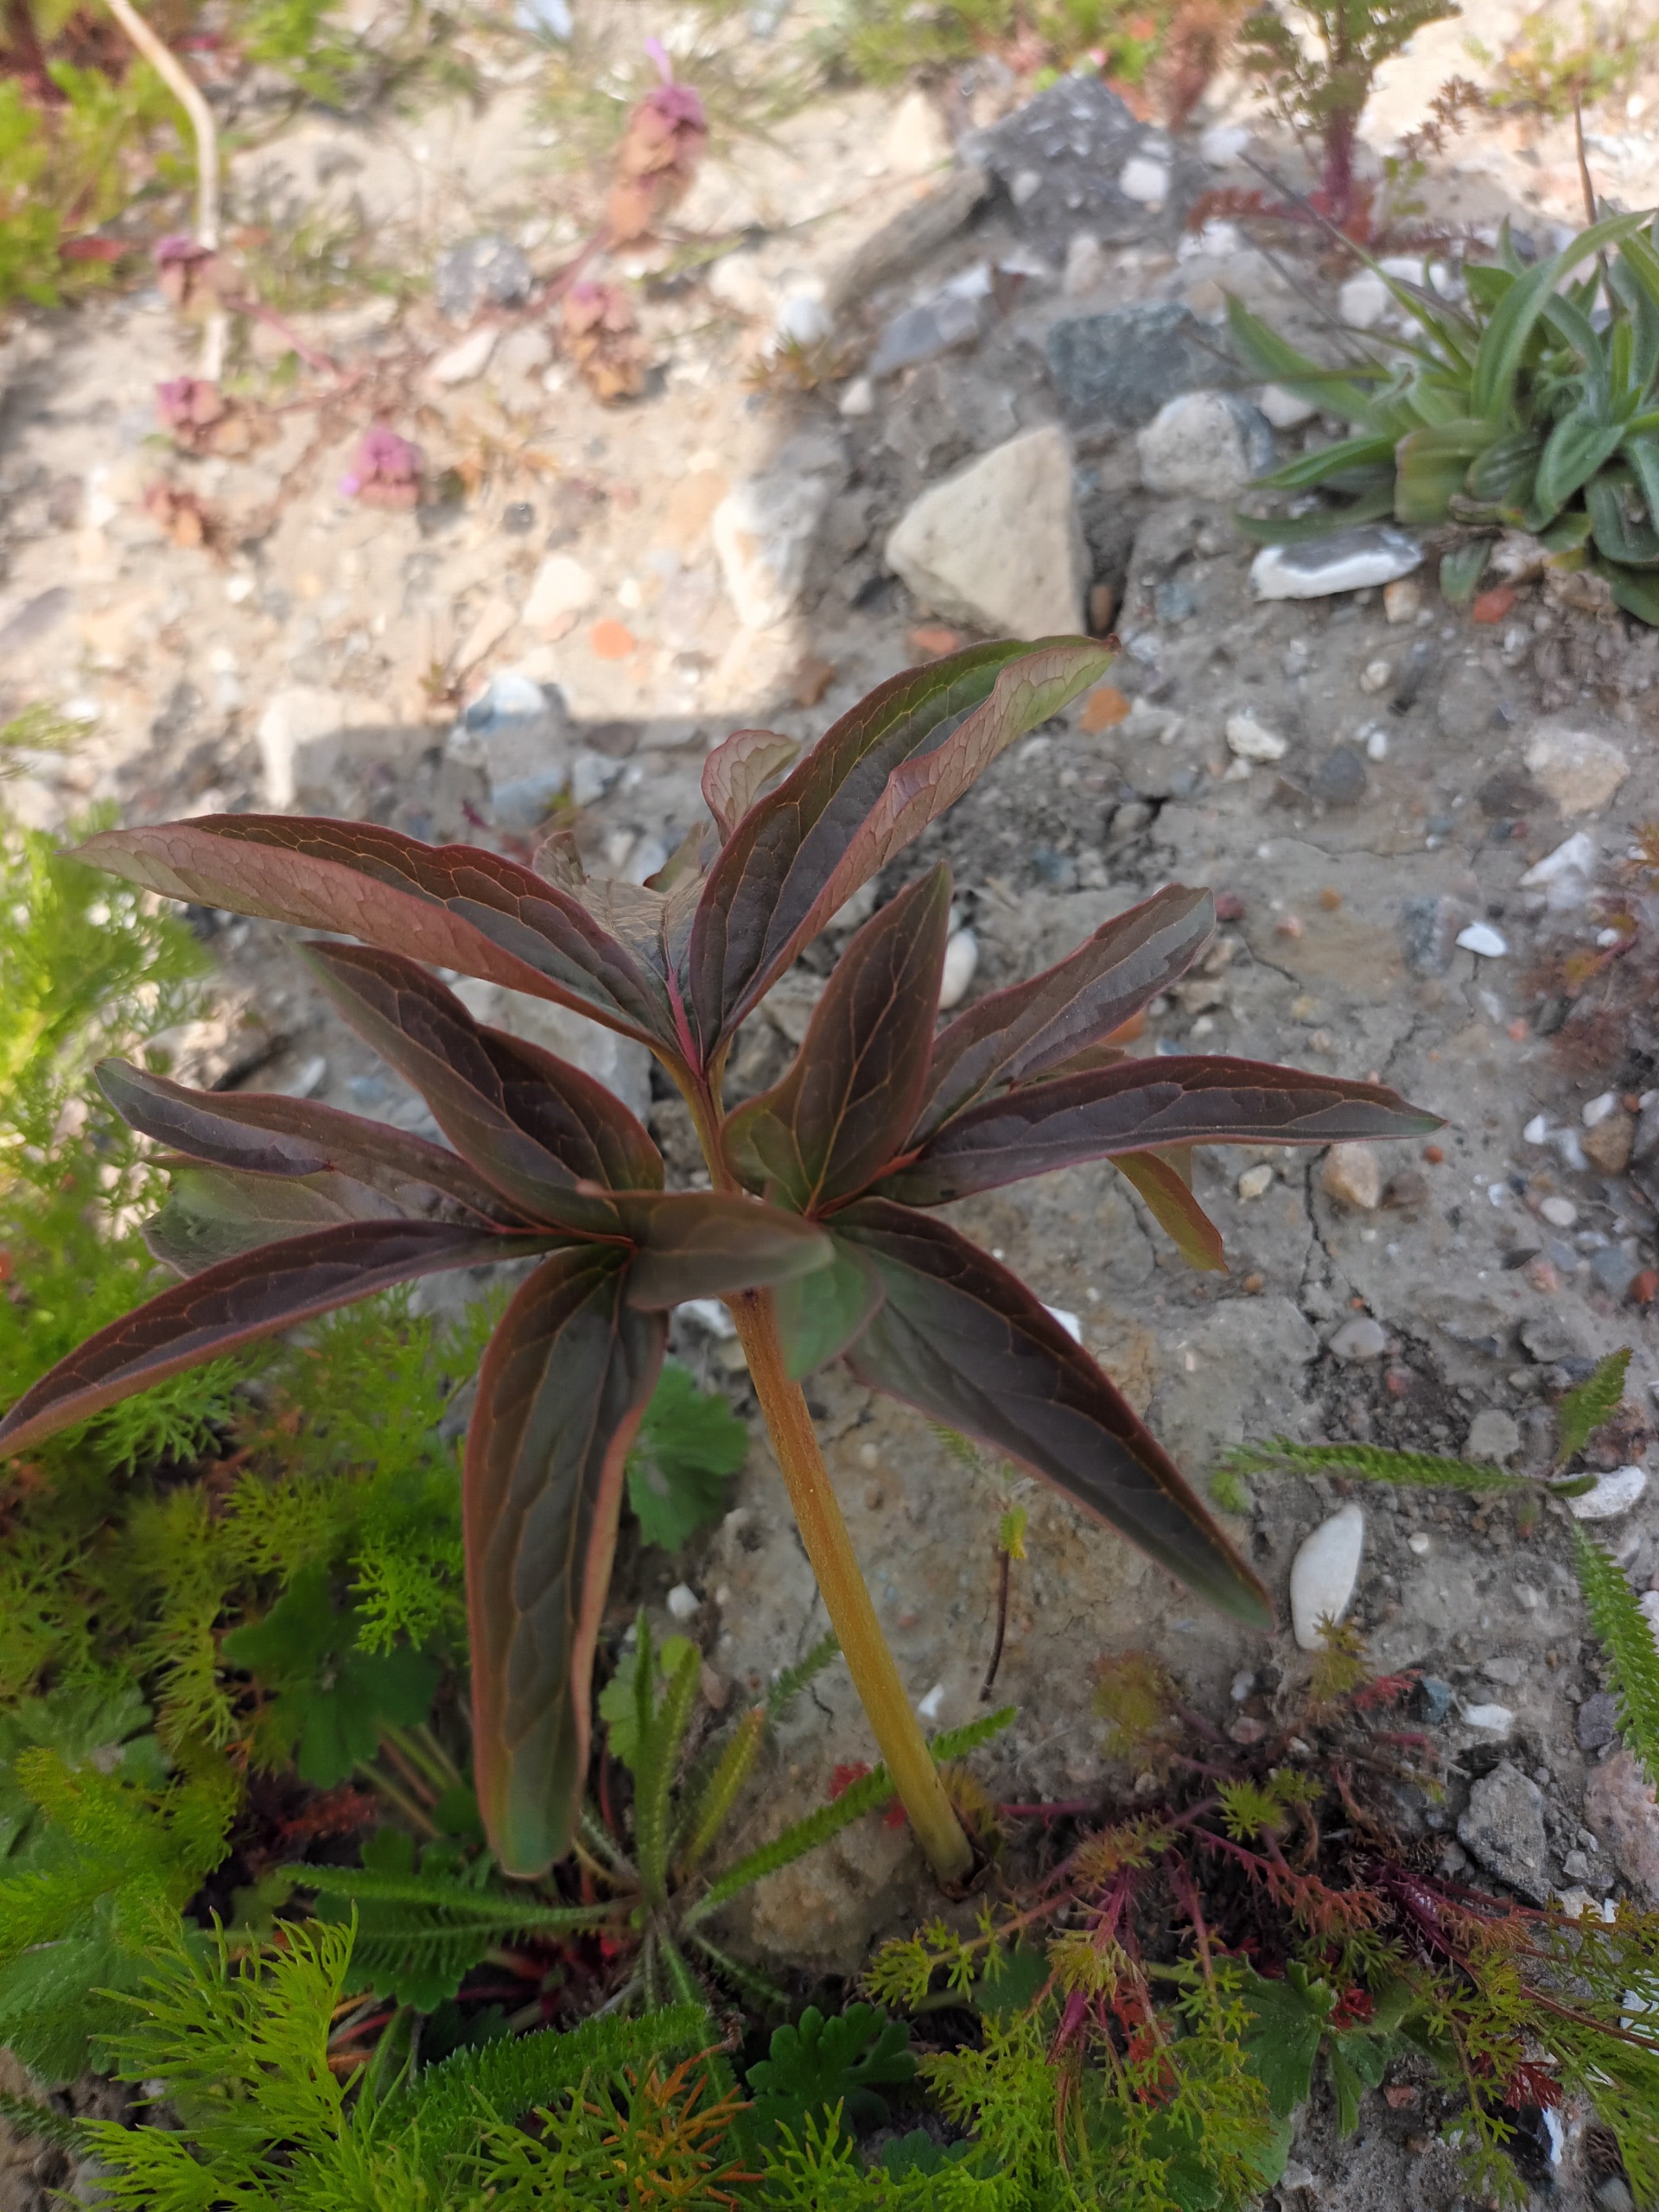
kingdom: Plantae
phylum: Tracheophyta
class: Magnoliopsida
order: Saxifragales
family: Paeoniaceae
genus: Paeonia
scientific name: Paeonia officinalis
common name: Bonderose
